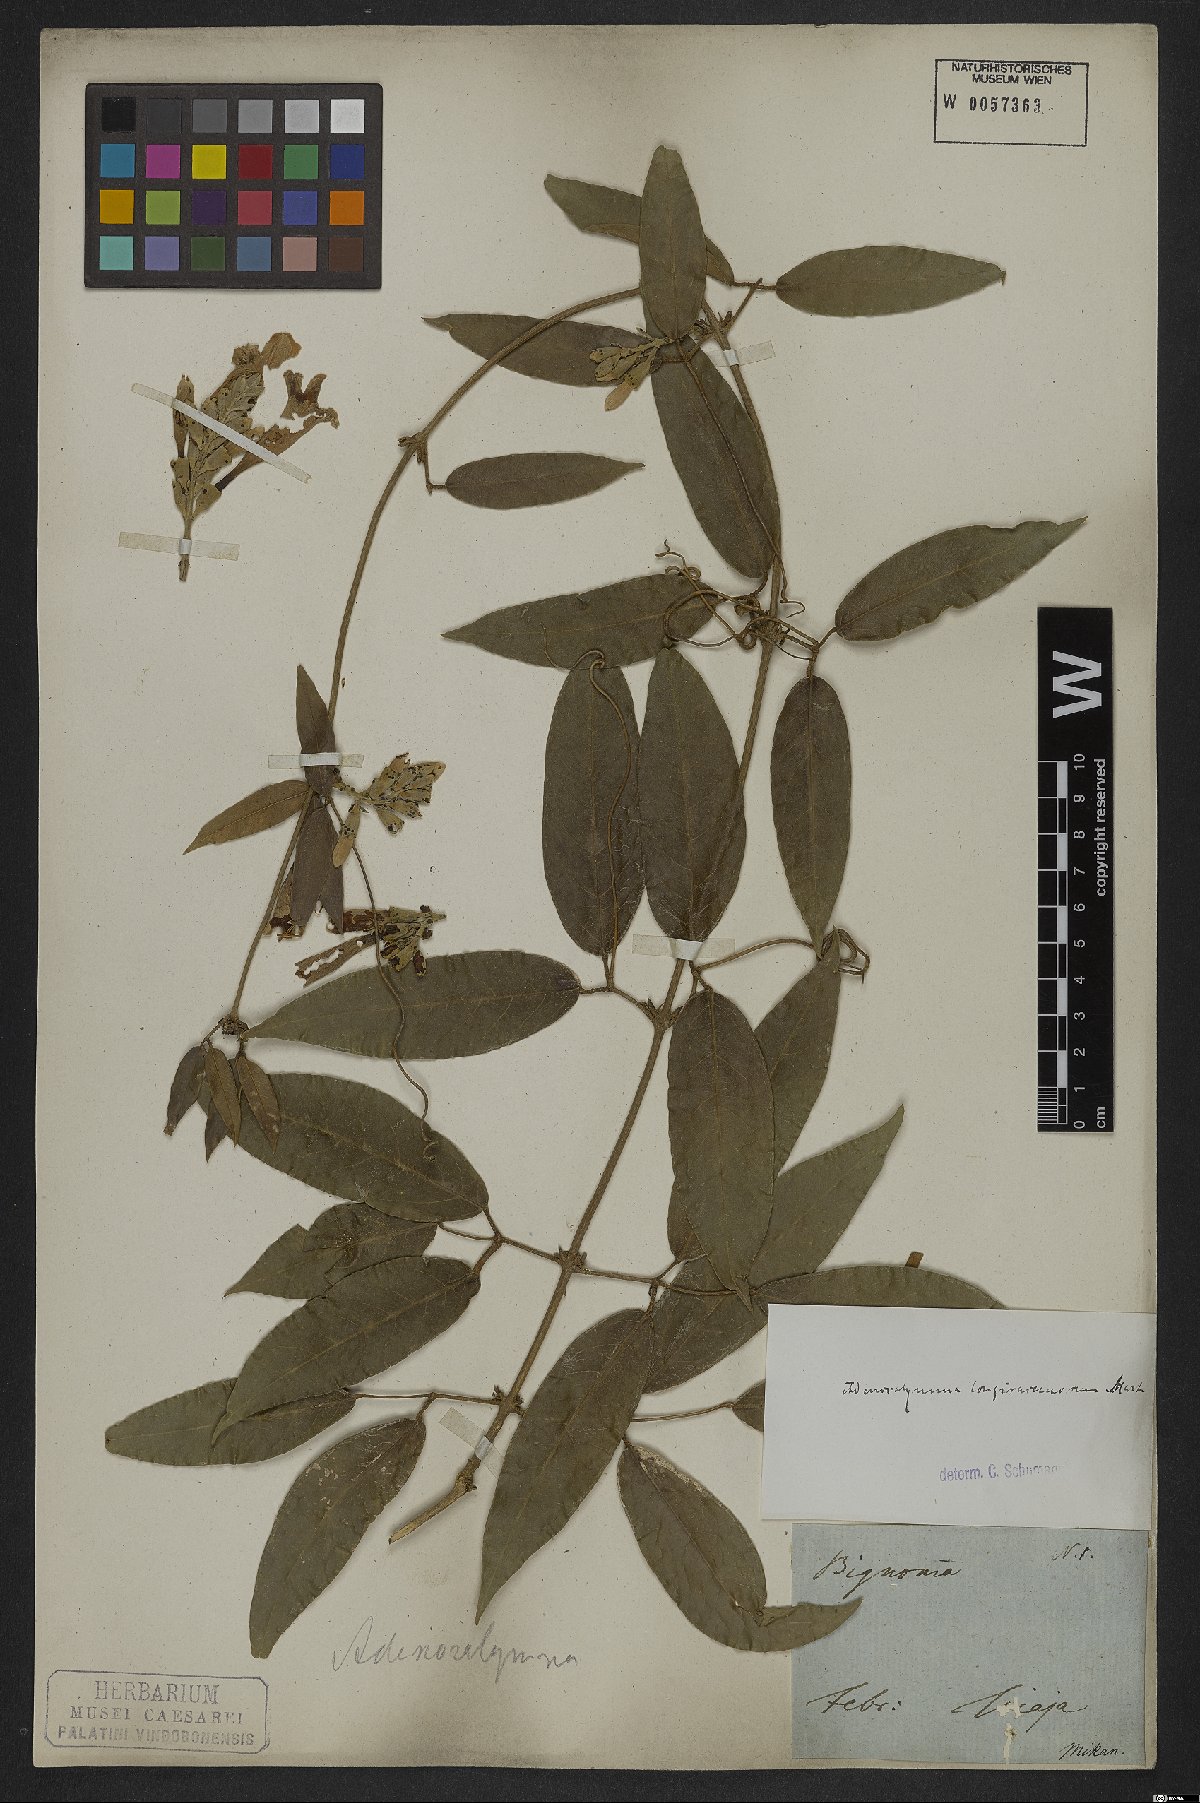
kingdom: Plantae
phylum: Tracheophyta
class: Magnoliopsida
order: Lamiales
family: Bignoniaceae
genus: Adenocalymma
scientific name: Adenocalymma trifoliatum
